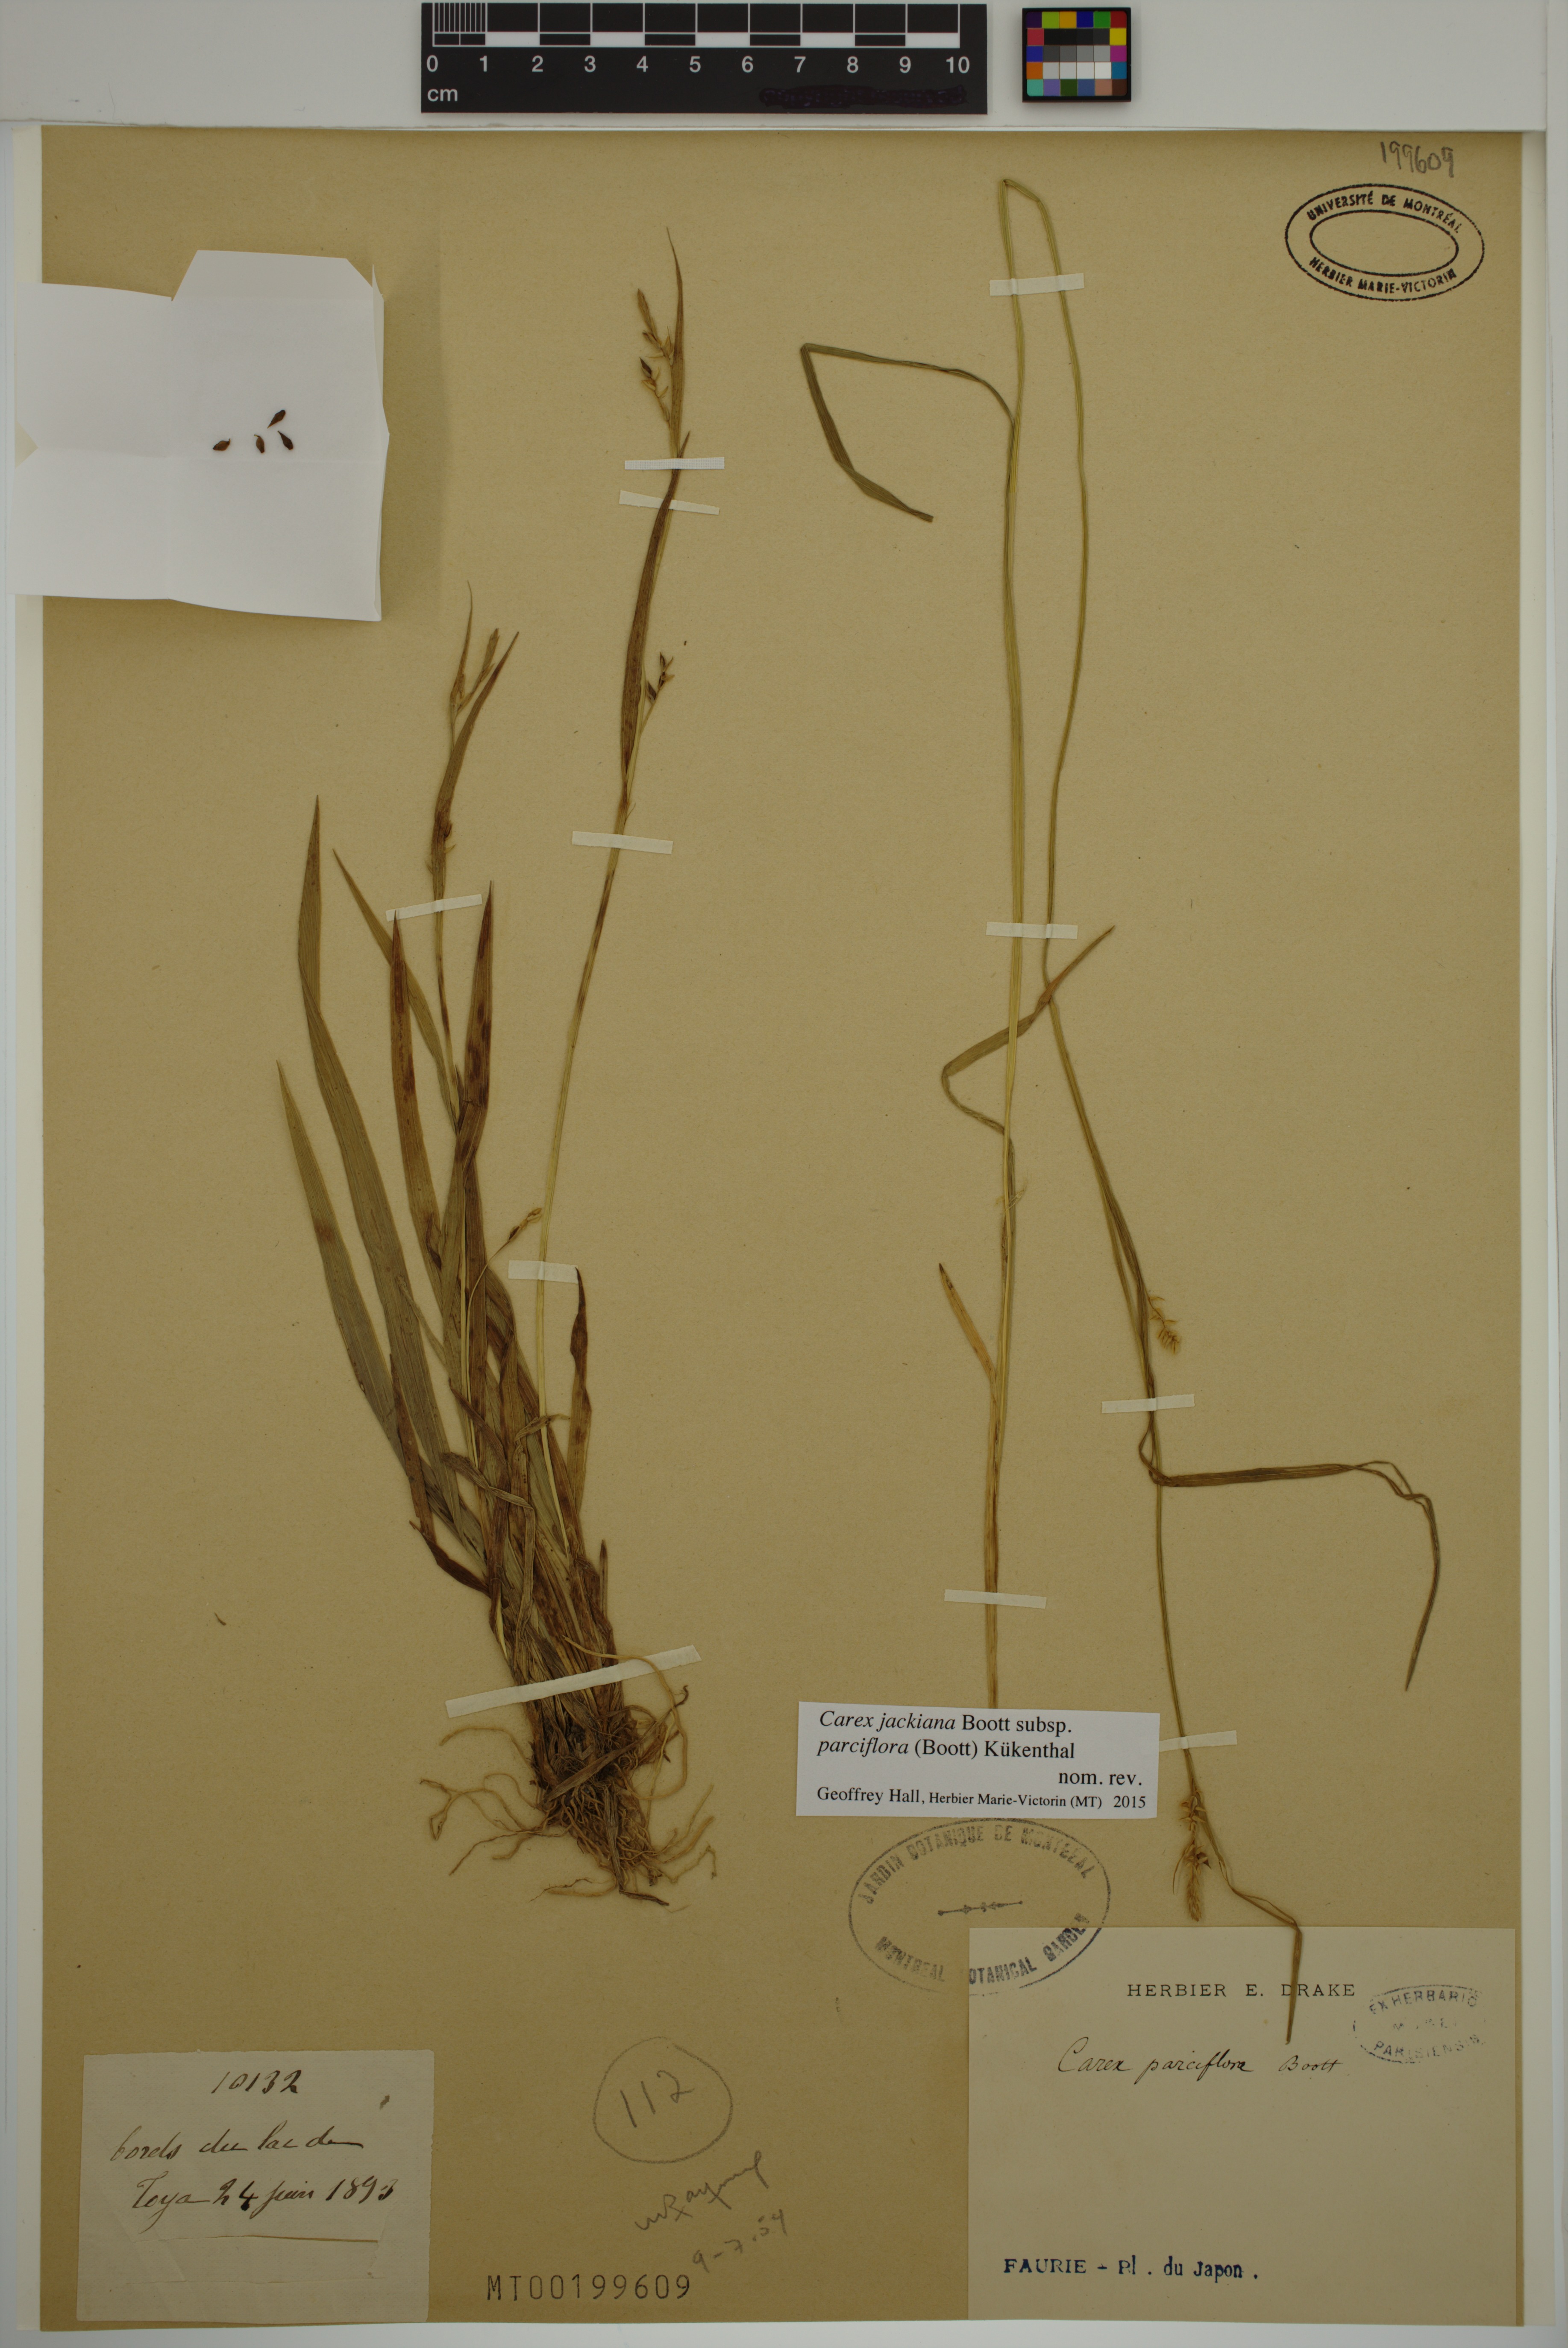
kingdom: Plantae
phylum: Tracheophyta
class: Liliopsida
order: Poales
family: Cyperaceae
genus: Carex
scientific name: Carex parciflora
